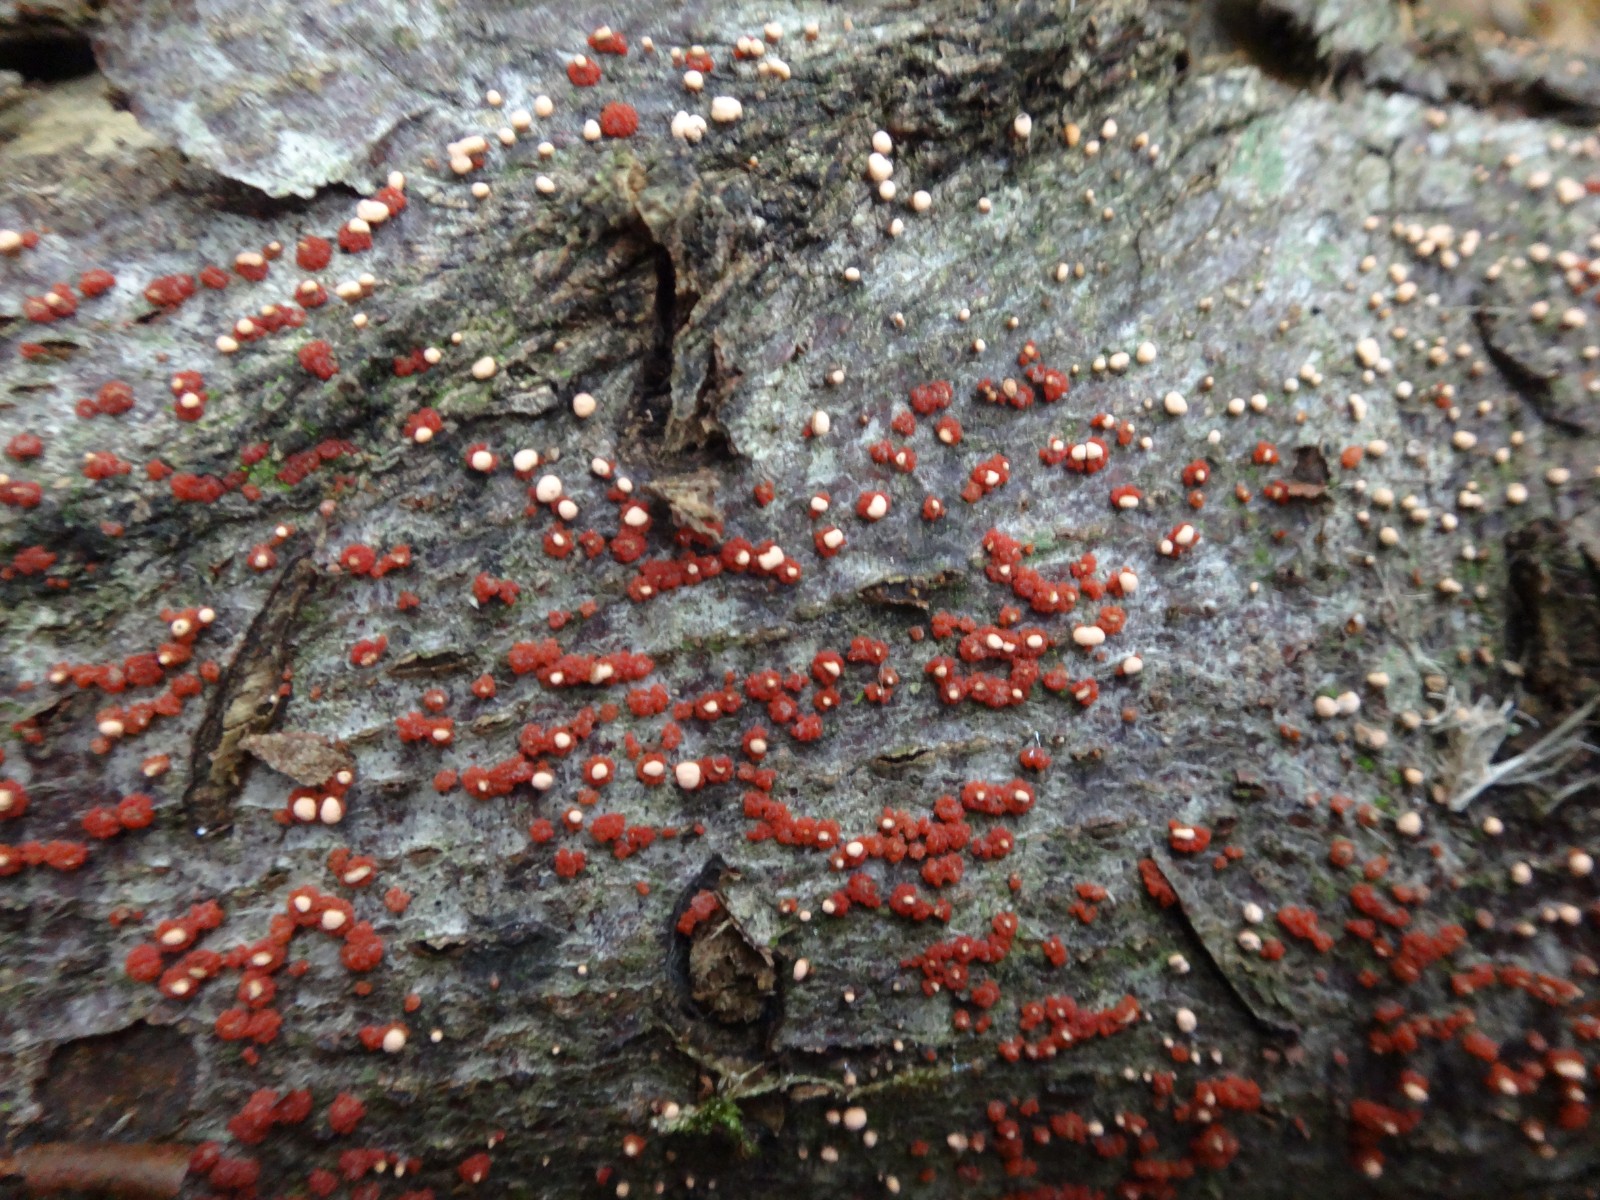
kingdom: Fungi
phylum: Ascomycota
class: Sordariomycetes
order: Hypocreales
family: Nectriaceae
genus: Nectria
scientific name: Nectria cinnabarina
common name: almindelig cinnobersvamp
